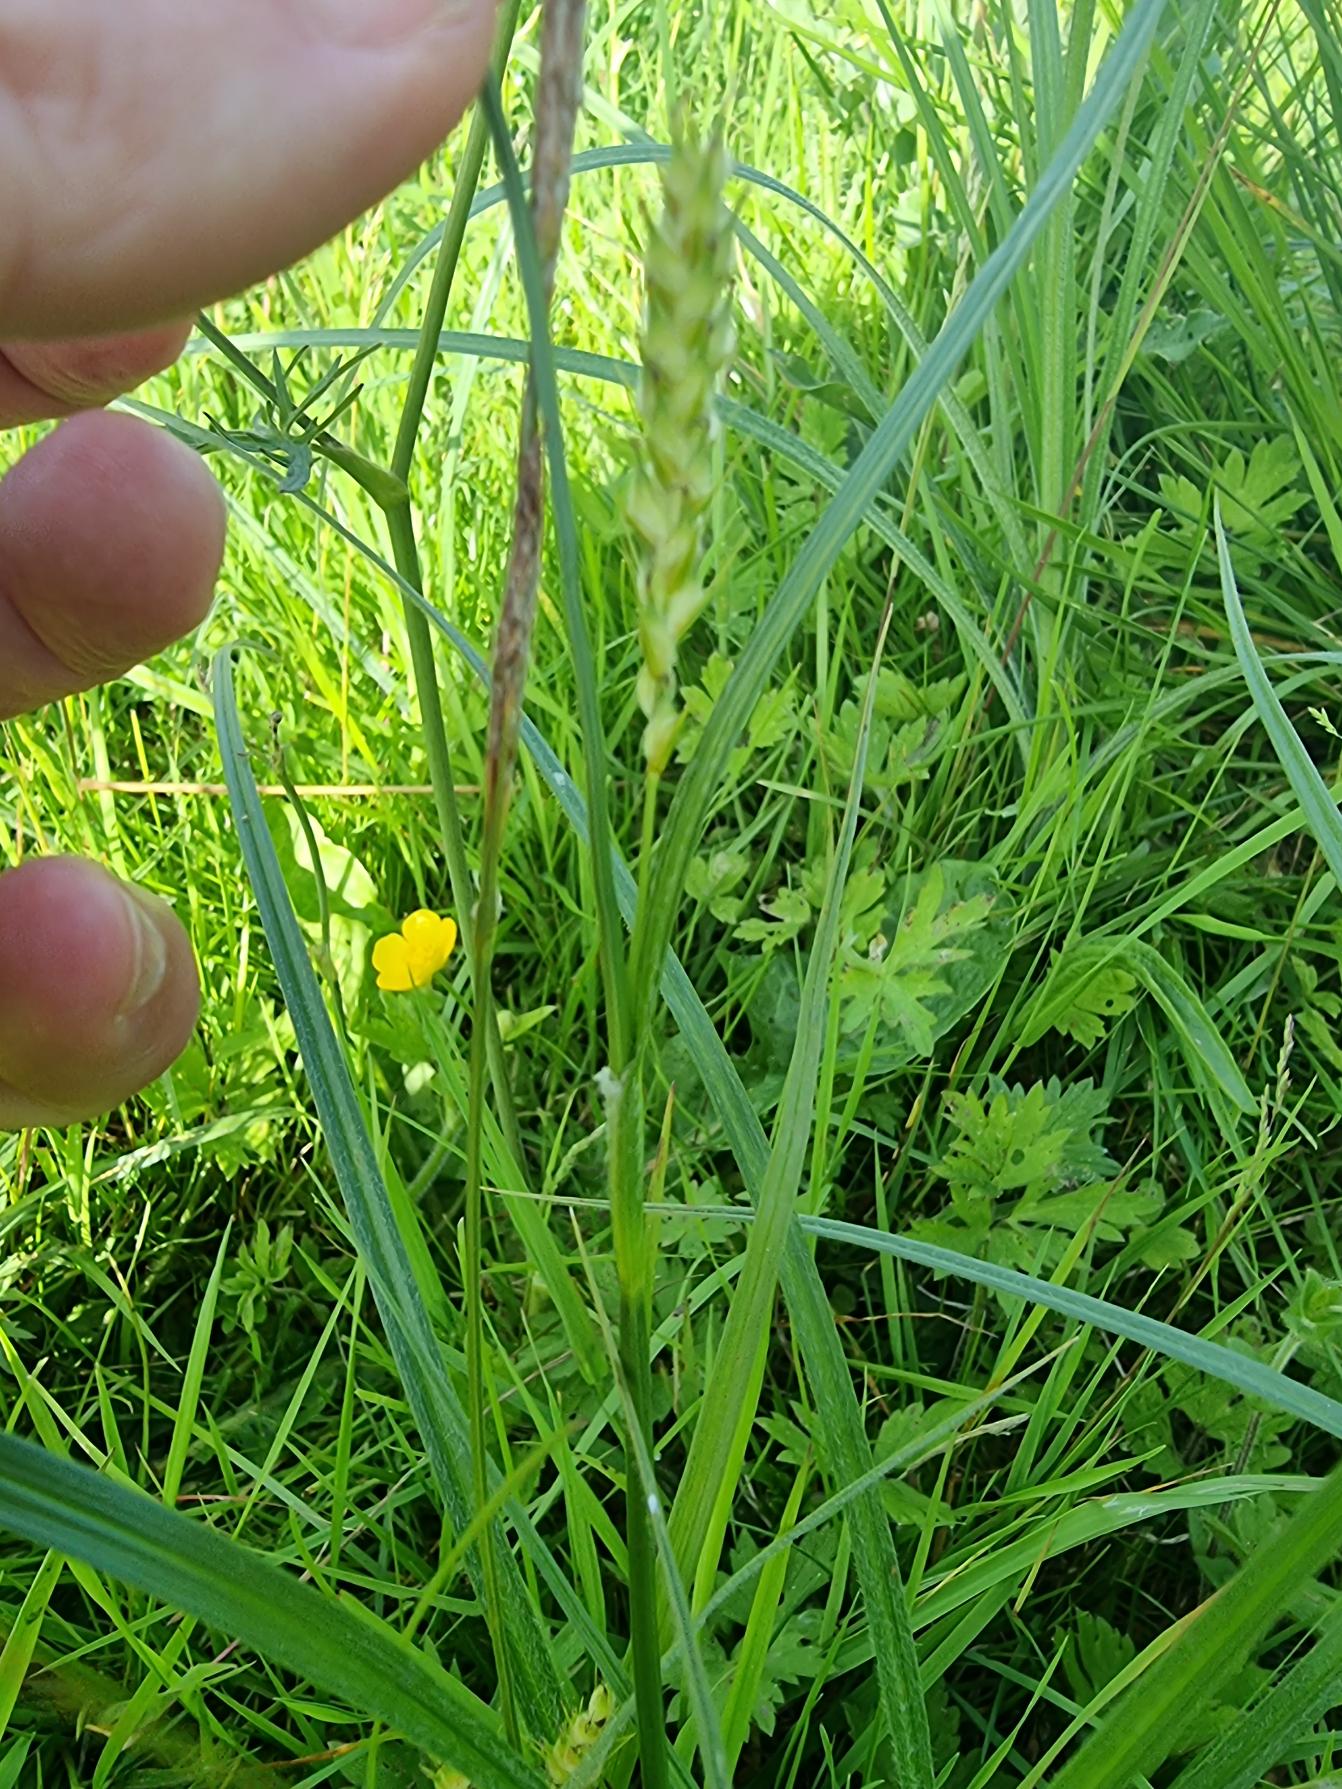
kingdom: Plantae
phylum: Tracheophyta
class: Liliopsida
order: Poales
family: Cyperaceae
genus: Carex
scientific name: Carex hirta
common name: Håret star
